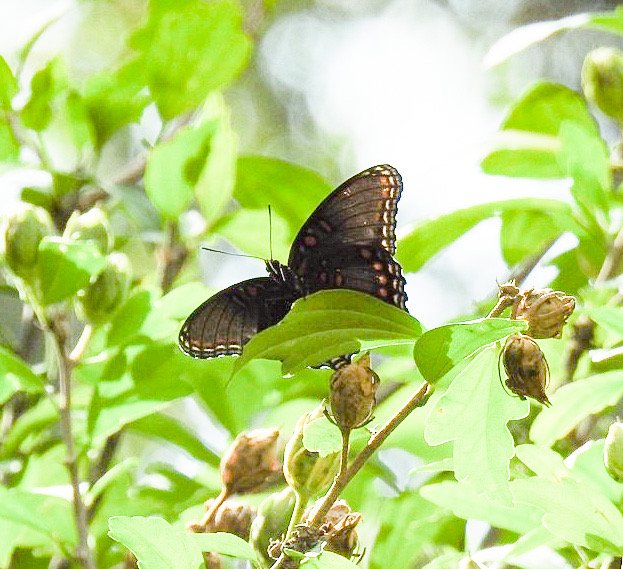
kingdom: Animalia
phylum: Arthropoda
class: Insecta
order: Lepidoptera
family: Nymphalidae
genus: Limenitis
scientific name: Limenitis arthemis
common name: Red-spotted Admiral
